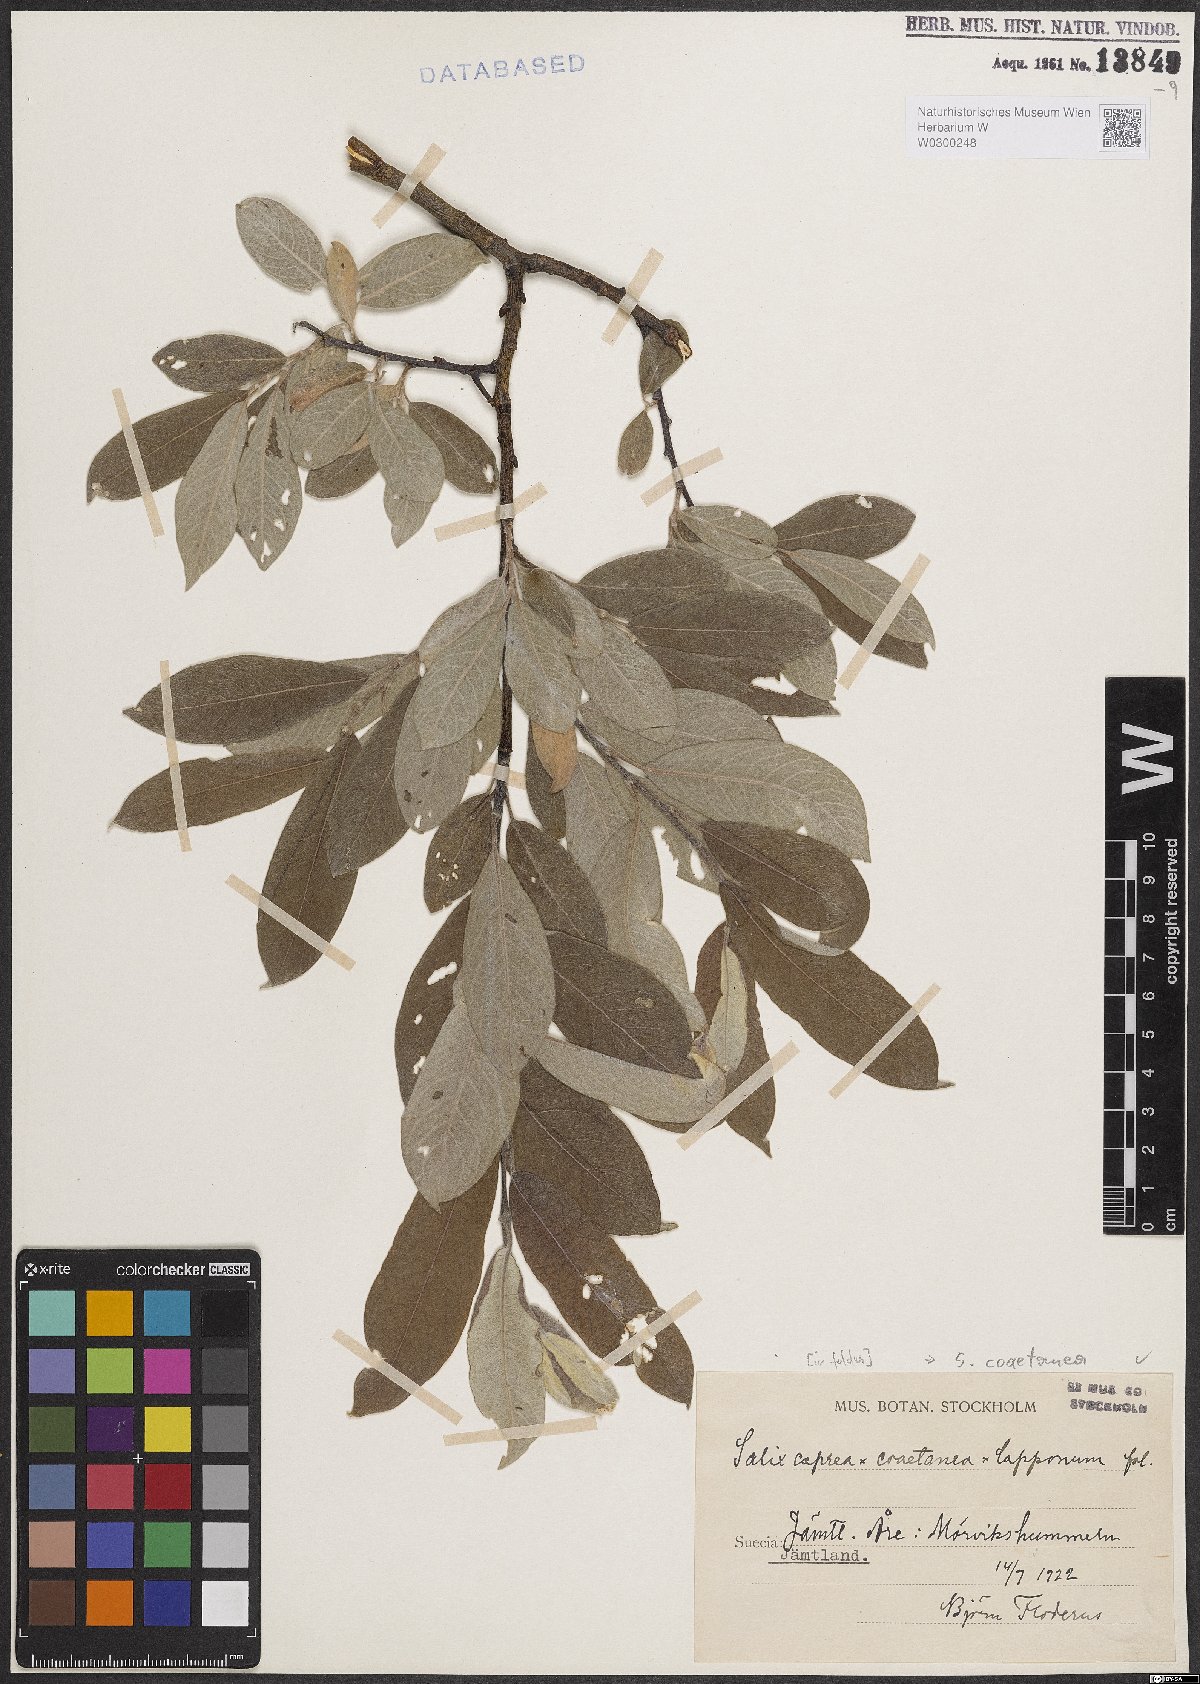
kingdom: Plantae
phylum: Tracheophyta
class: Magnoliopsida
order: Malpighiales
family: Salicaceae
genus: Salix
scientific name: Salix caprea
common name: Goat willow
